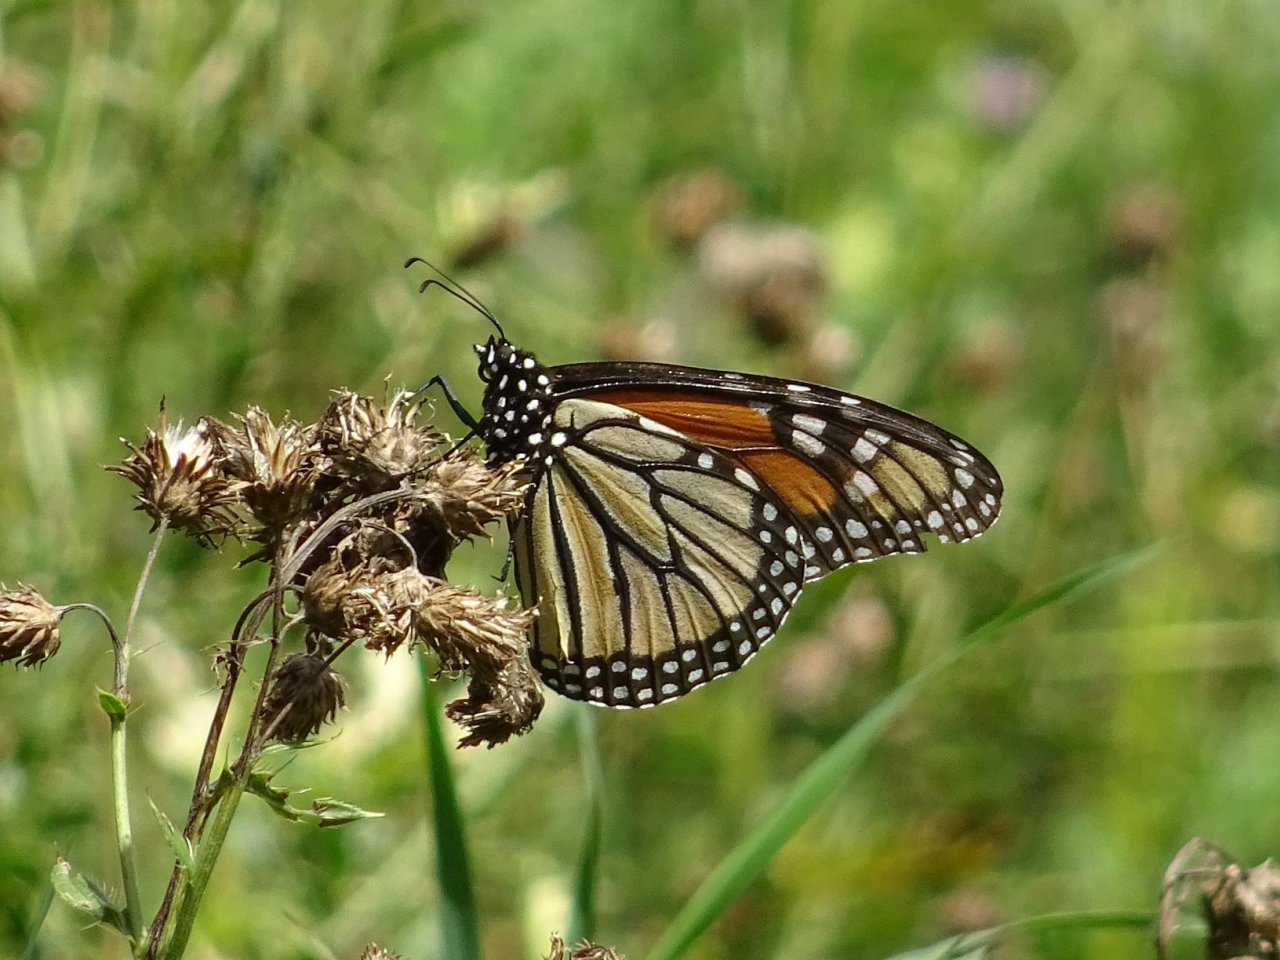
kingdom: Animalia
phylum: Arthropoda
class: Insecta
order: Lepidoptera
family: Nymphalidae
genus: Danaus
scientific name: Danaus plexippus
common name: Monarch
